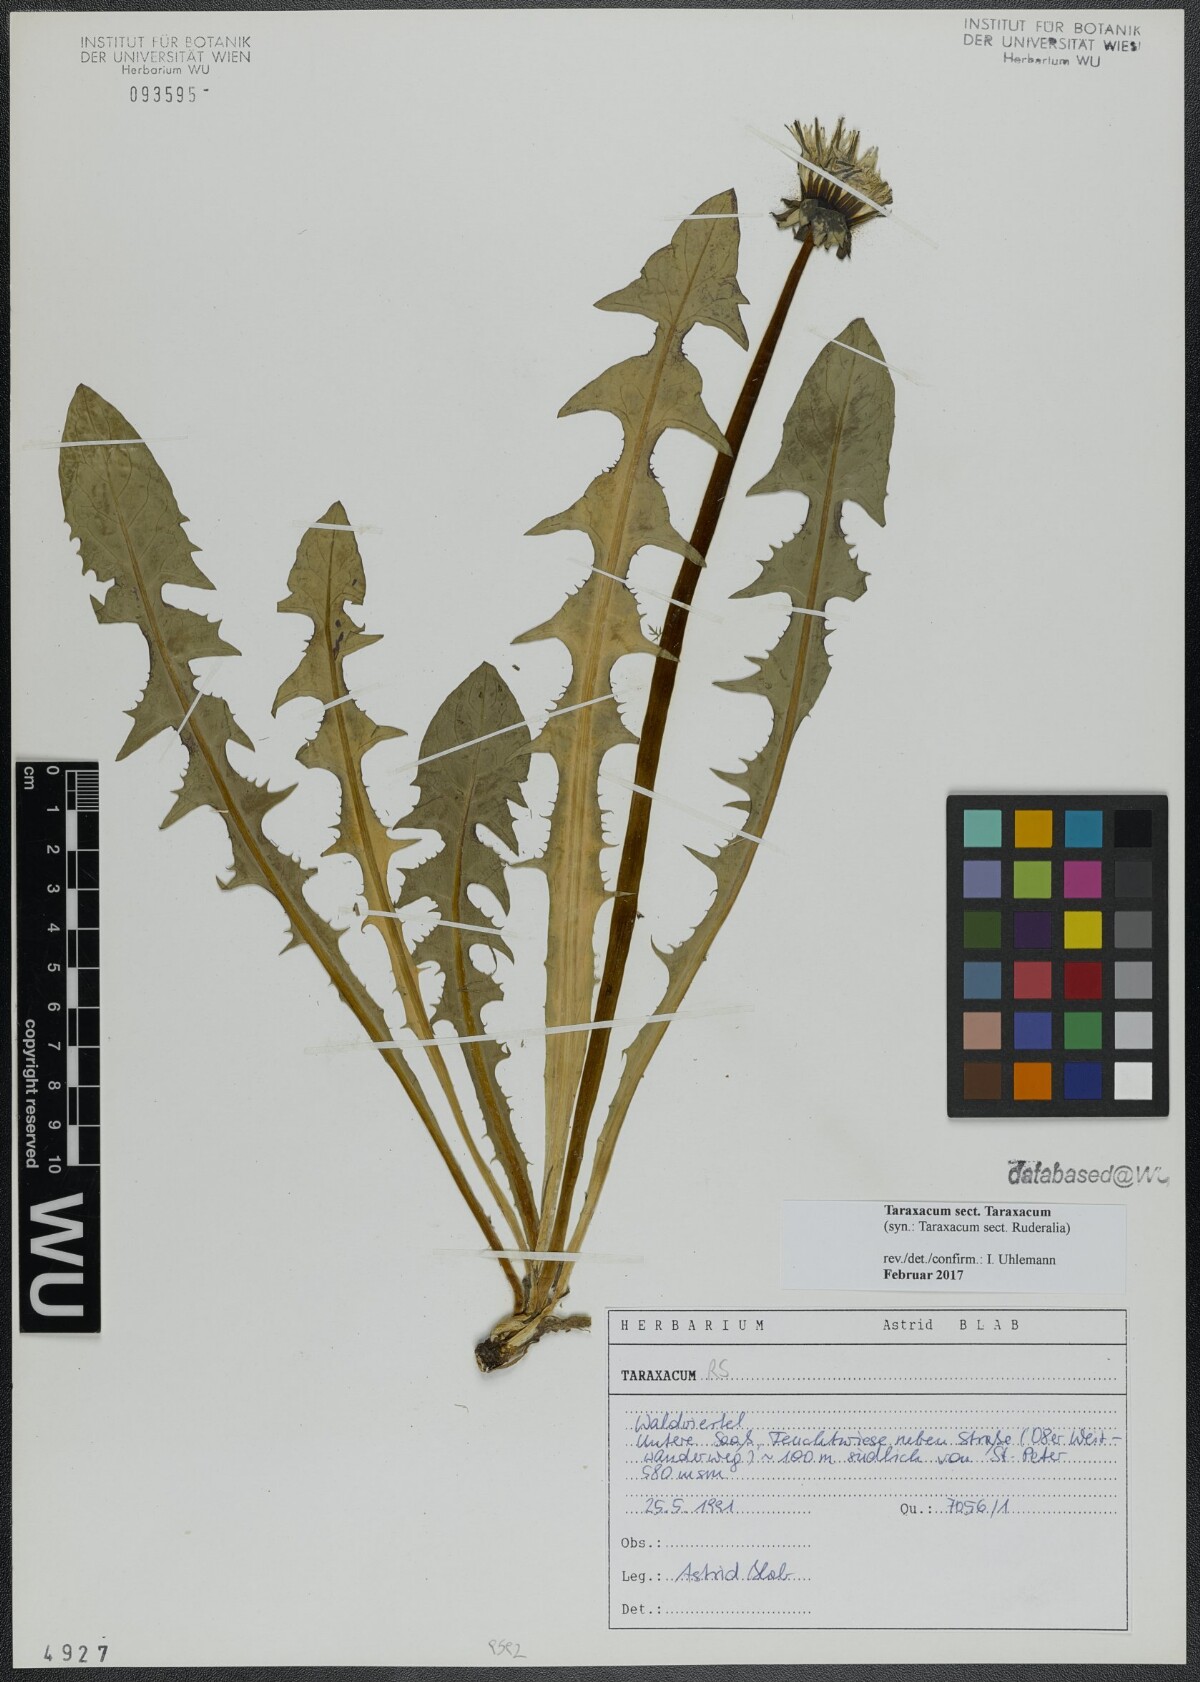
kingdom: Plantae
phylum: Tracheophyta
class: Magnoliopsida
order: Asterales
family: Asteraceae
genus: Taraxacum
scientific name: Taraxacum
